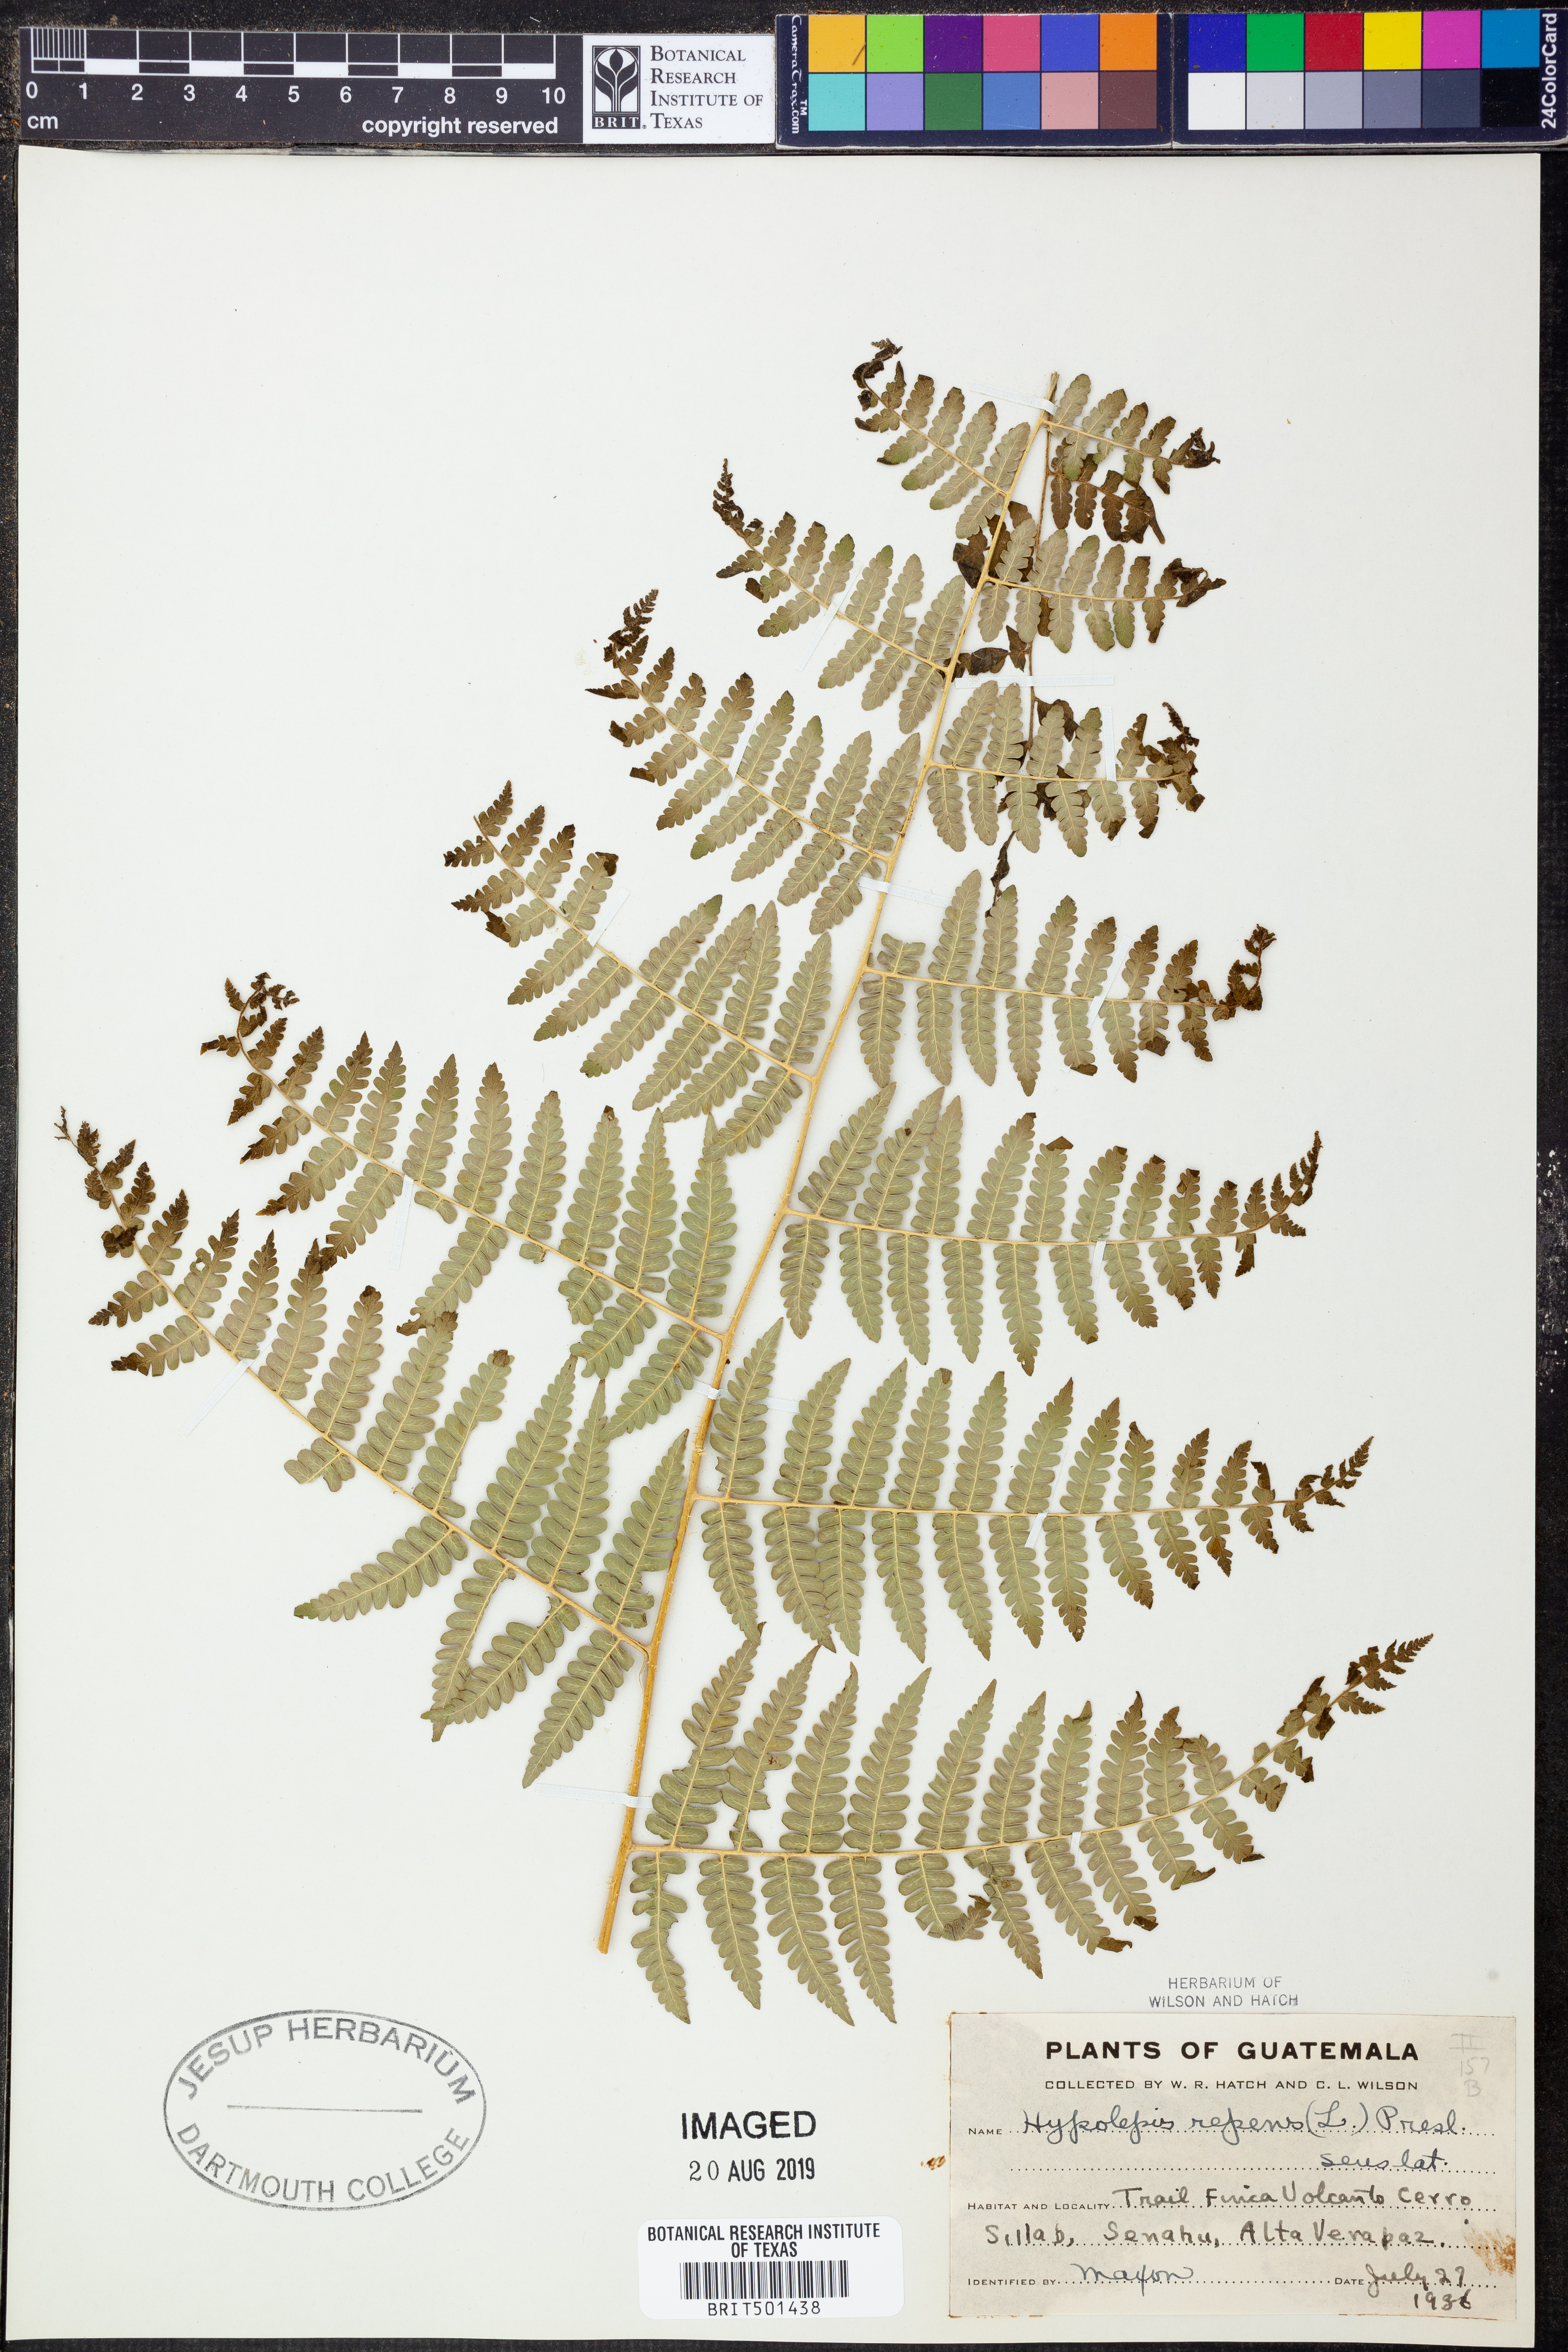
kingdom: Plantae
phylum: Tracheophyta
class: Polypodiopsida
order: Polypodiales
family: Saccolomataceae
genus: Orthiopteris
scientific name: Orthiopteris campylura
